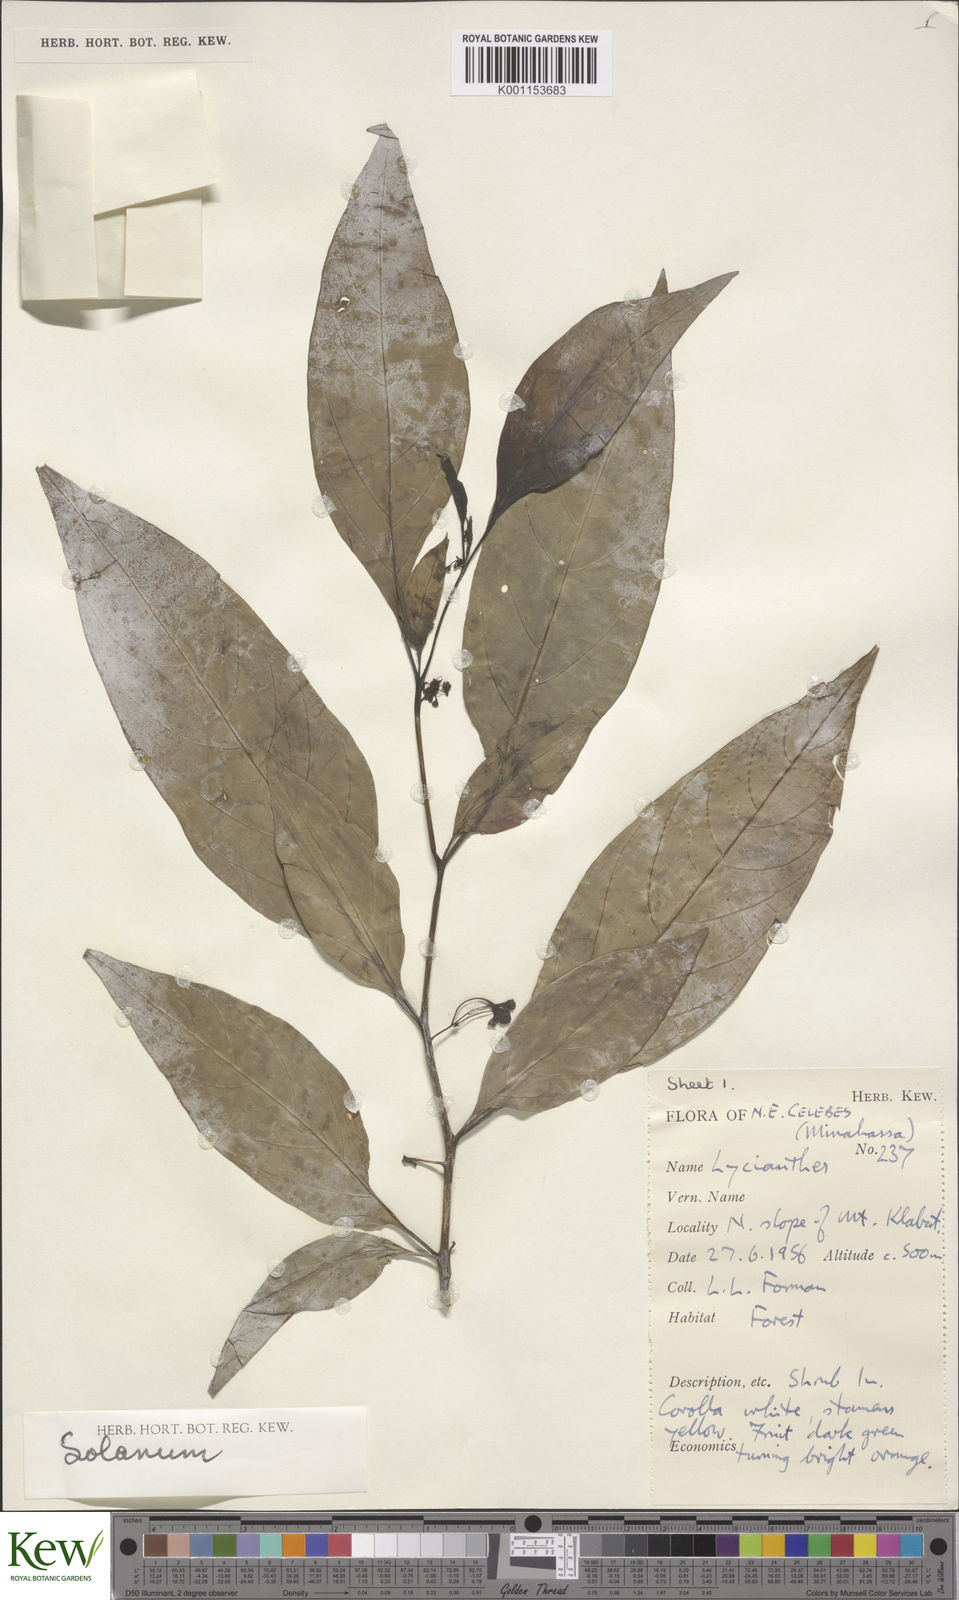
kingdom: Plantae
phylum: Tracheophyta
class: Magnoliopsida
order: Solanales
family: Solanaceae
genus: Solanum
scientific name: Solanum
